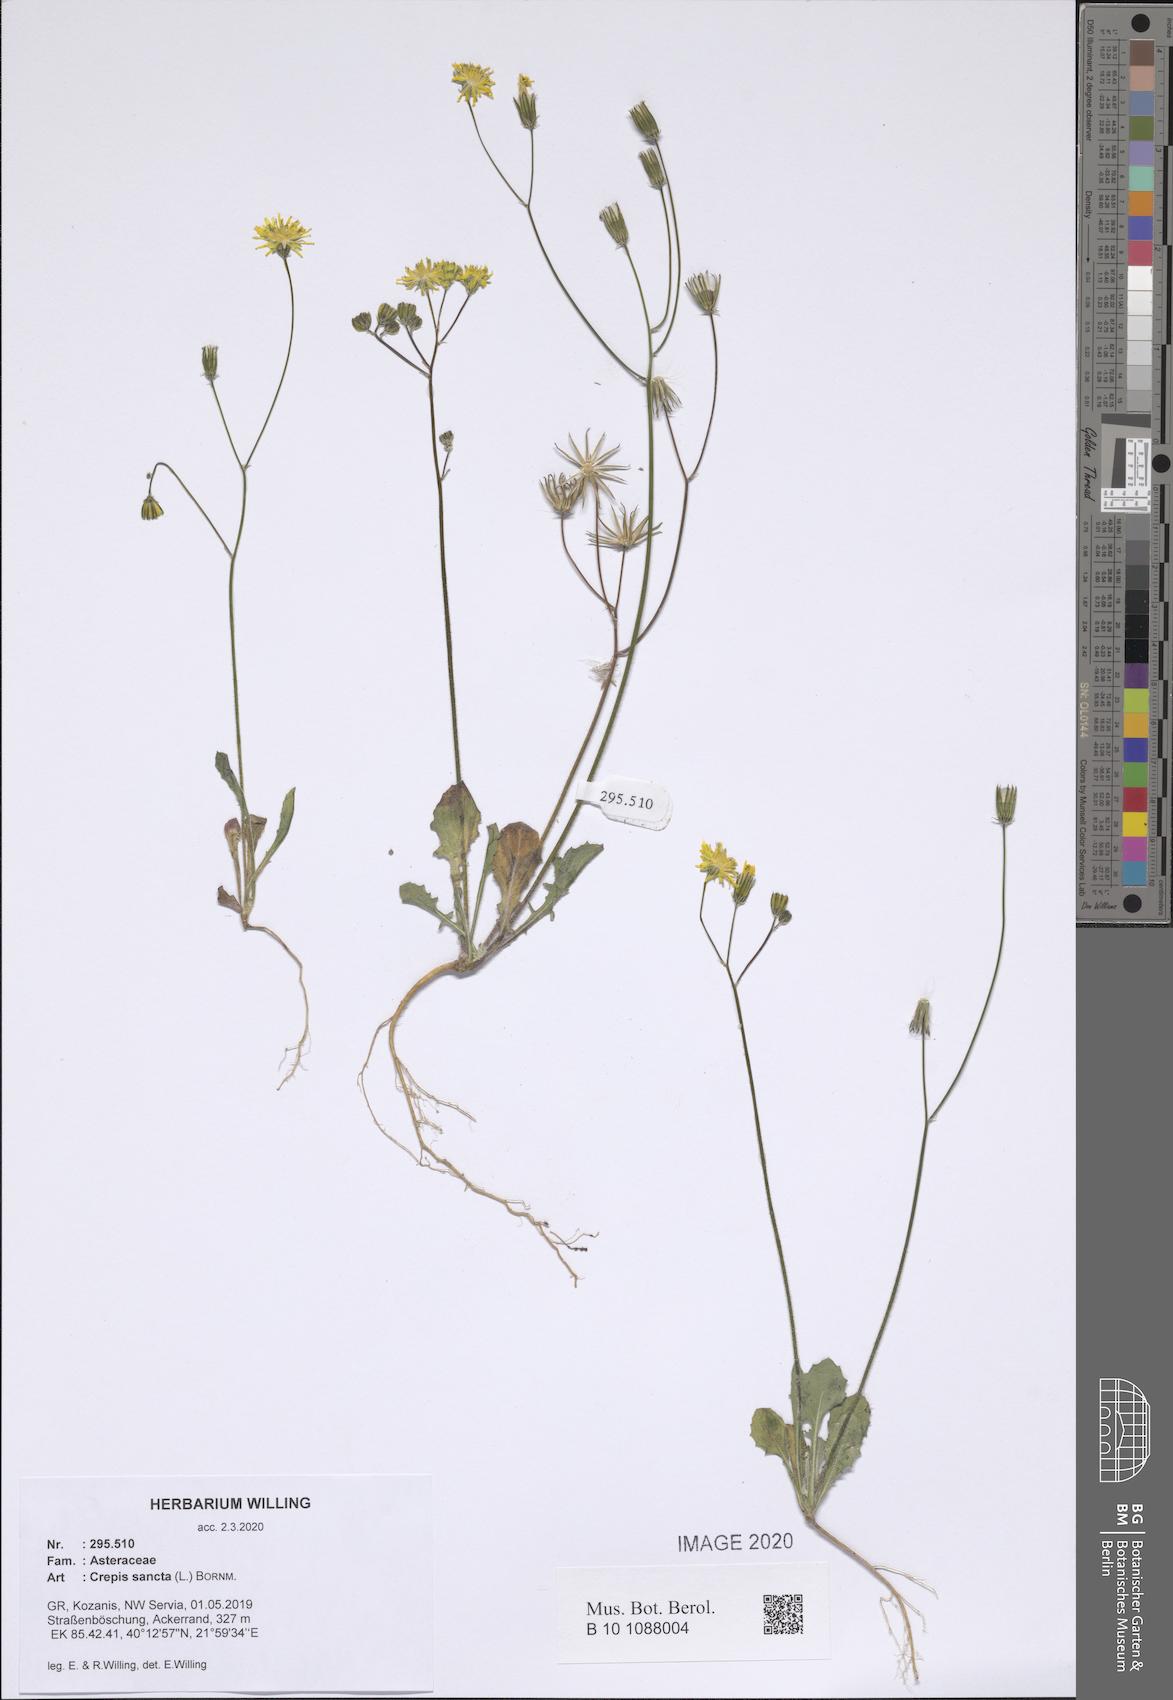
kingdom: Plantae
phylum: Tracheophyta
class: Magnoliopsida
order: Asterales
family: Asteraceae
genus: Crepis
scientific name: Crepis sancta
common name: Hawk's-beard
